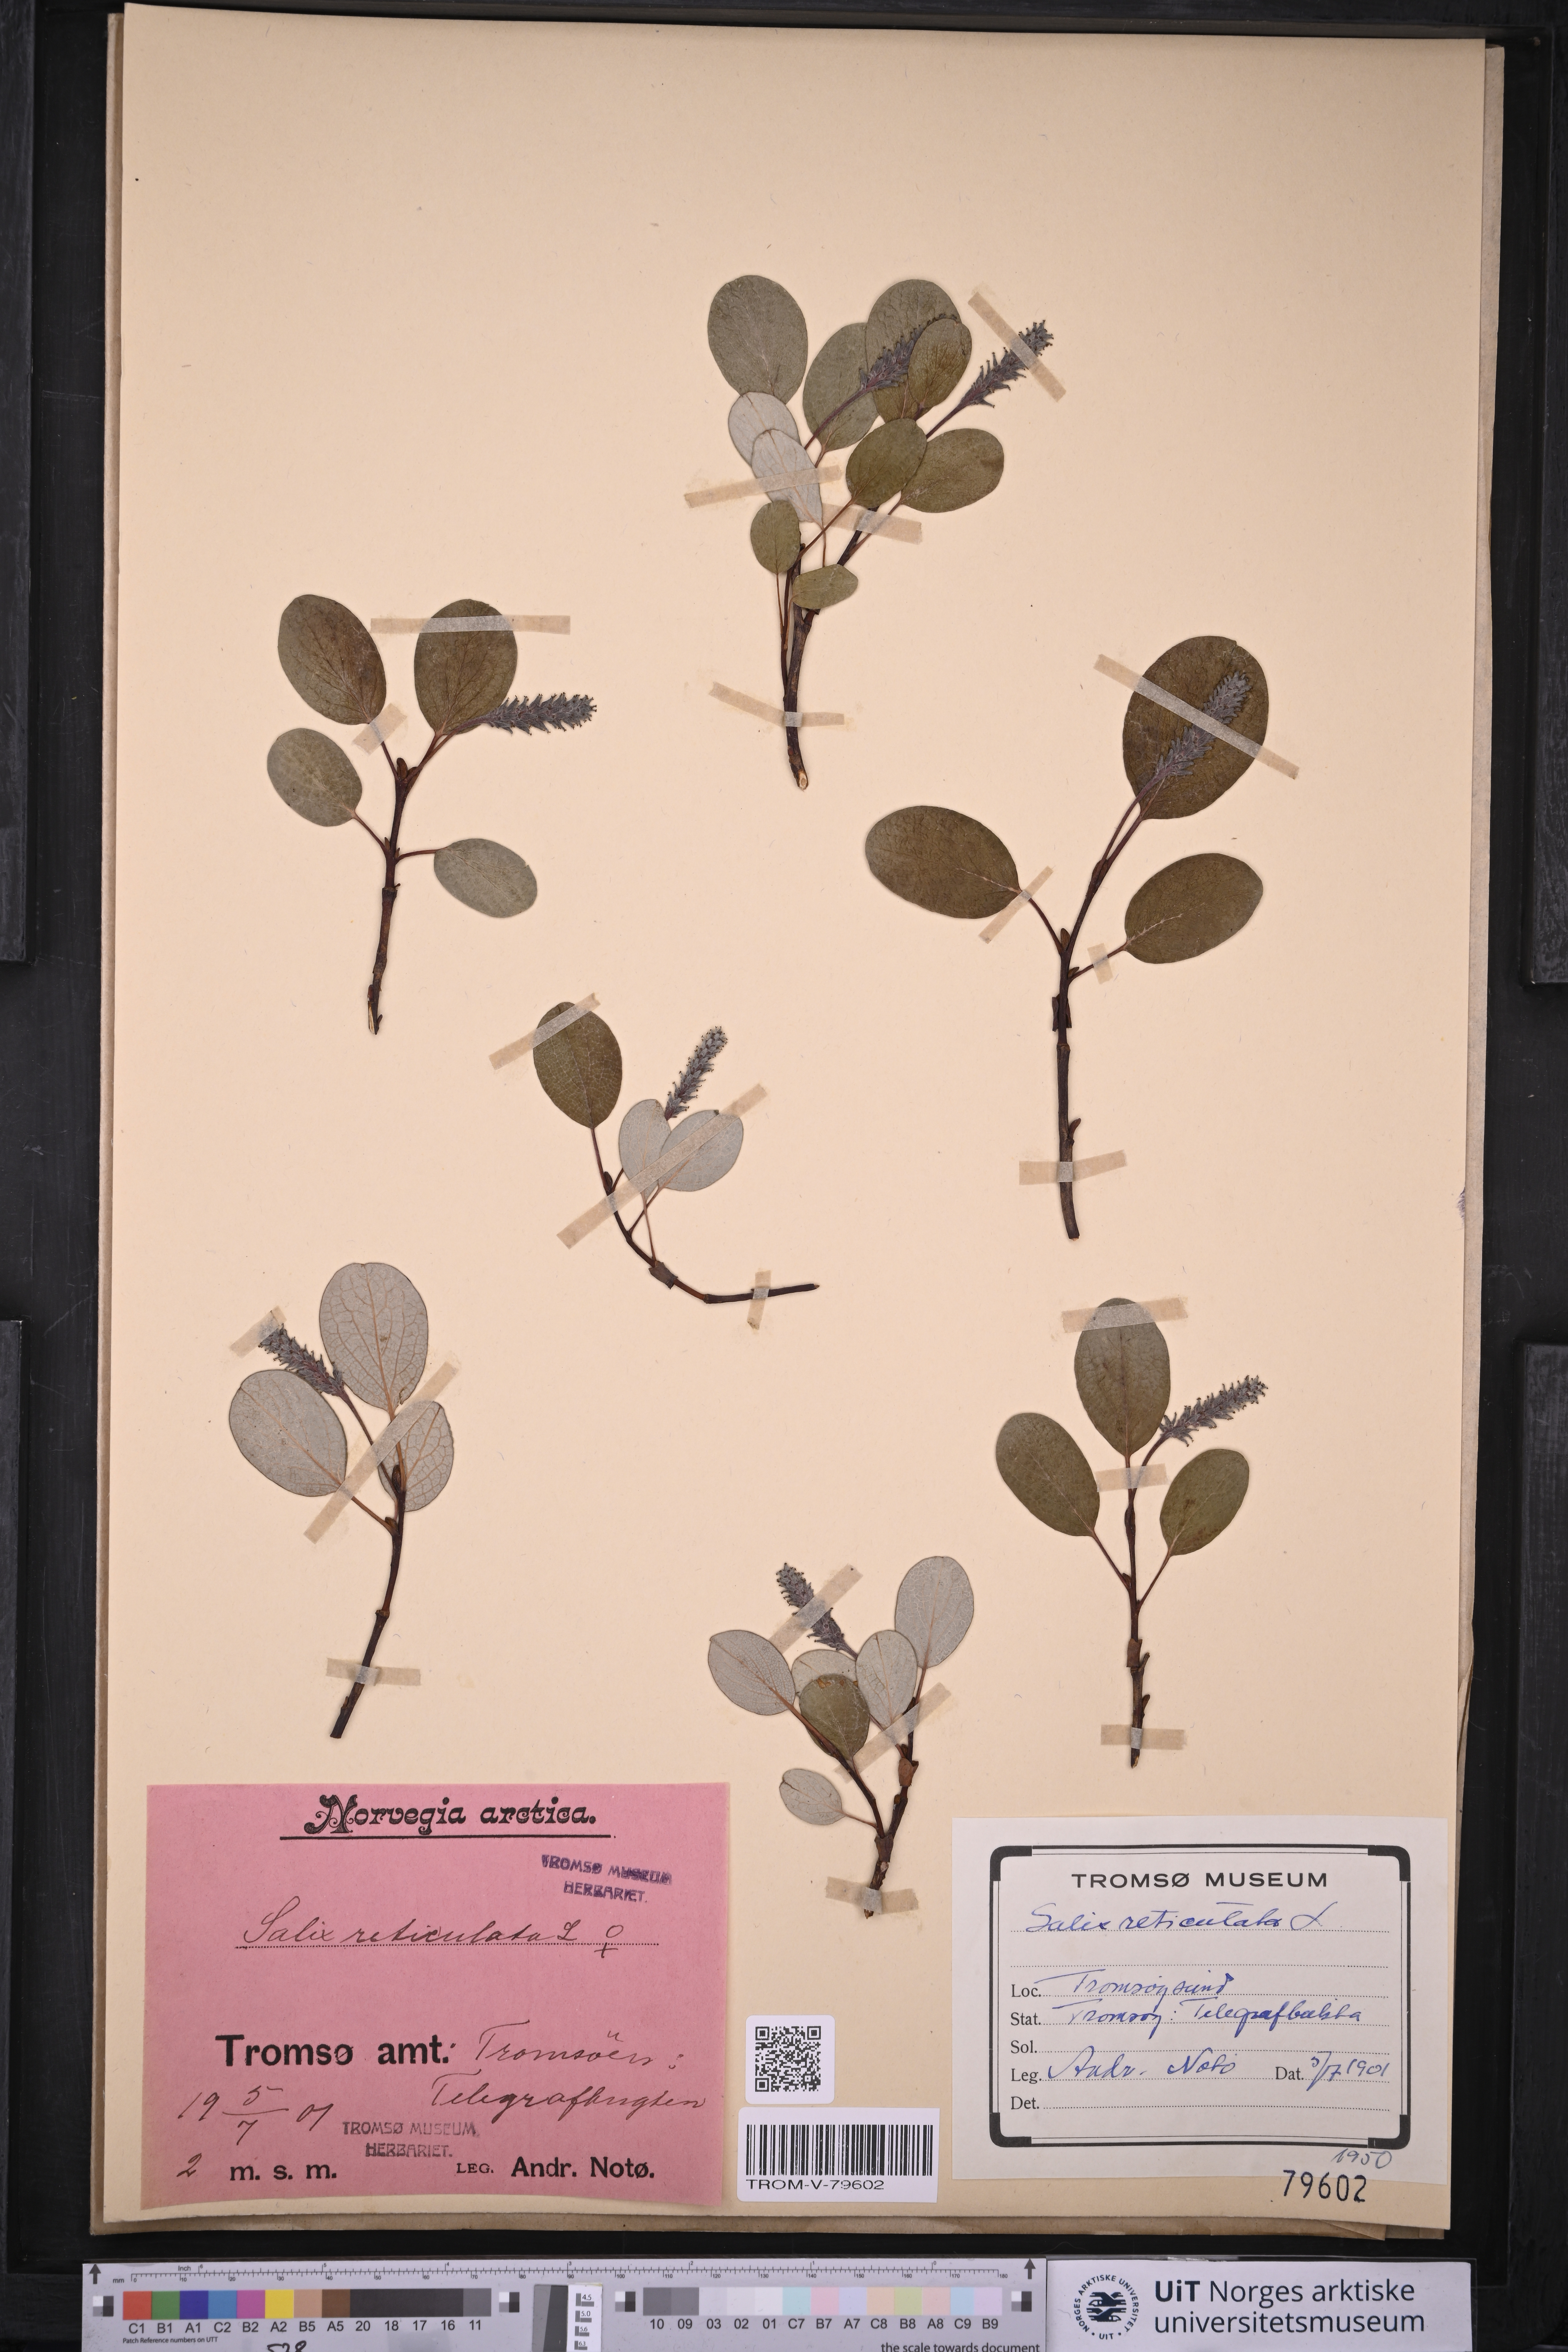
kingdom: Plantae
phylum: Tracheophyta
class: Magnoliopsida
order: Malpighiales
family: Salicaceae
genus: Salix
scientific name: Salix reticulata
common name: Net-leaved willow
